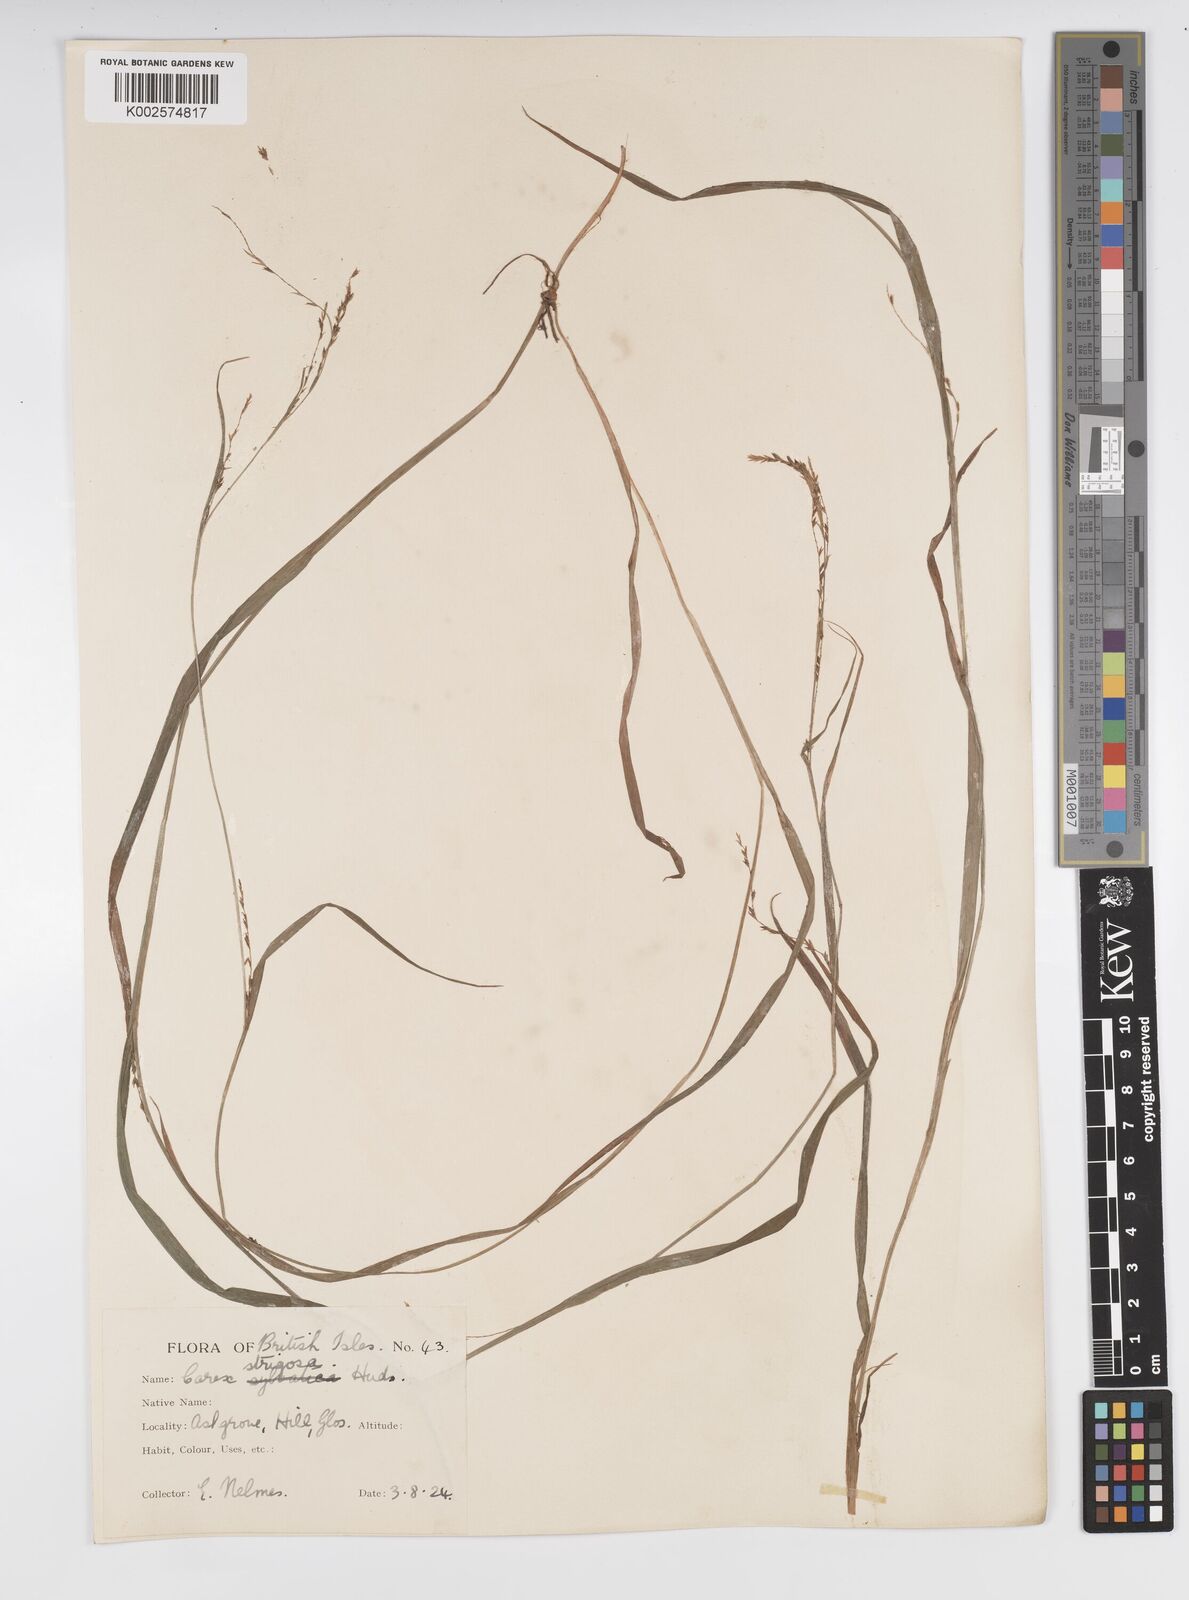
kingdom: Plantae
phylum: Tracheophyta
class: Liliopsida
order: Poales
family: Cyperaceae
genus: Carex
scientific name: Carex strigosa
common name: Thin-spiked wood-sedge
